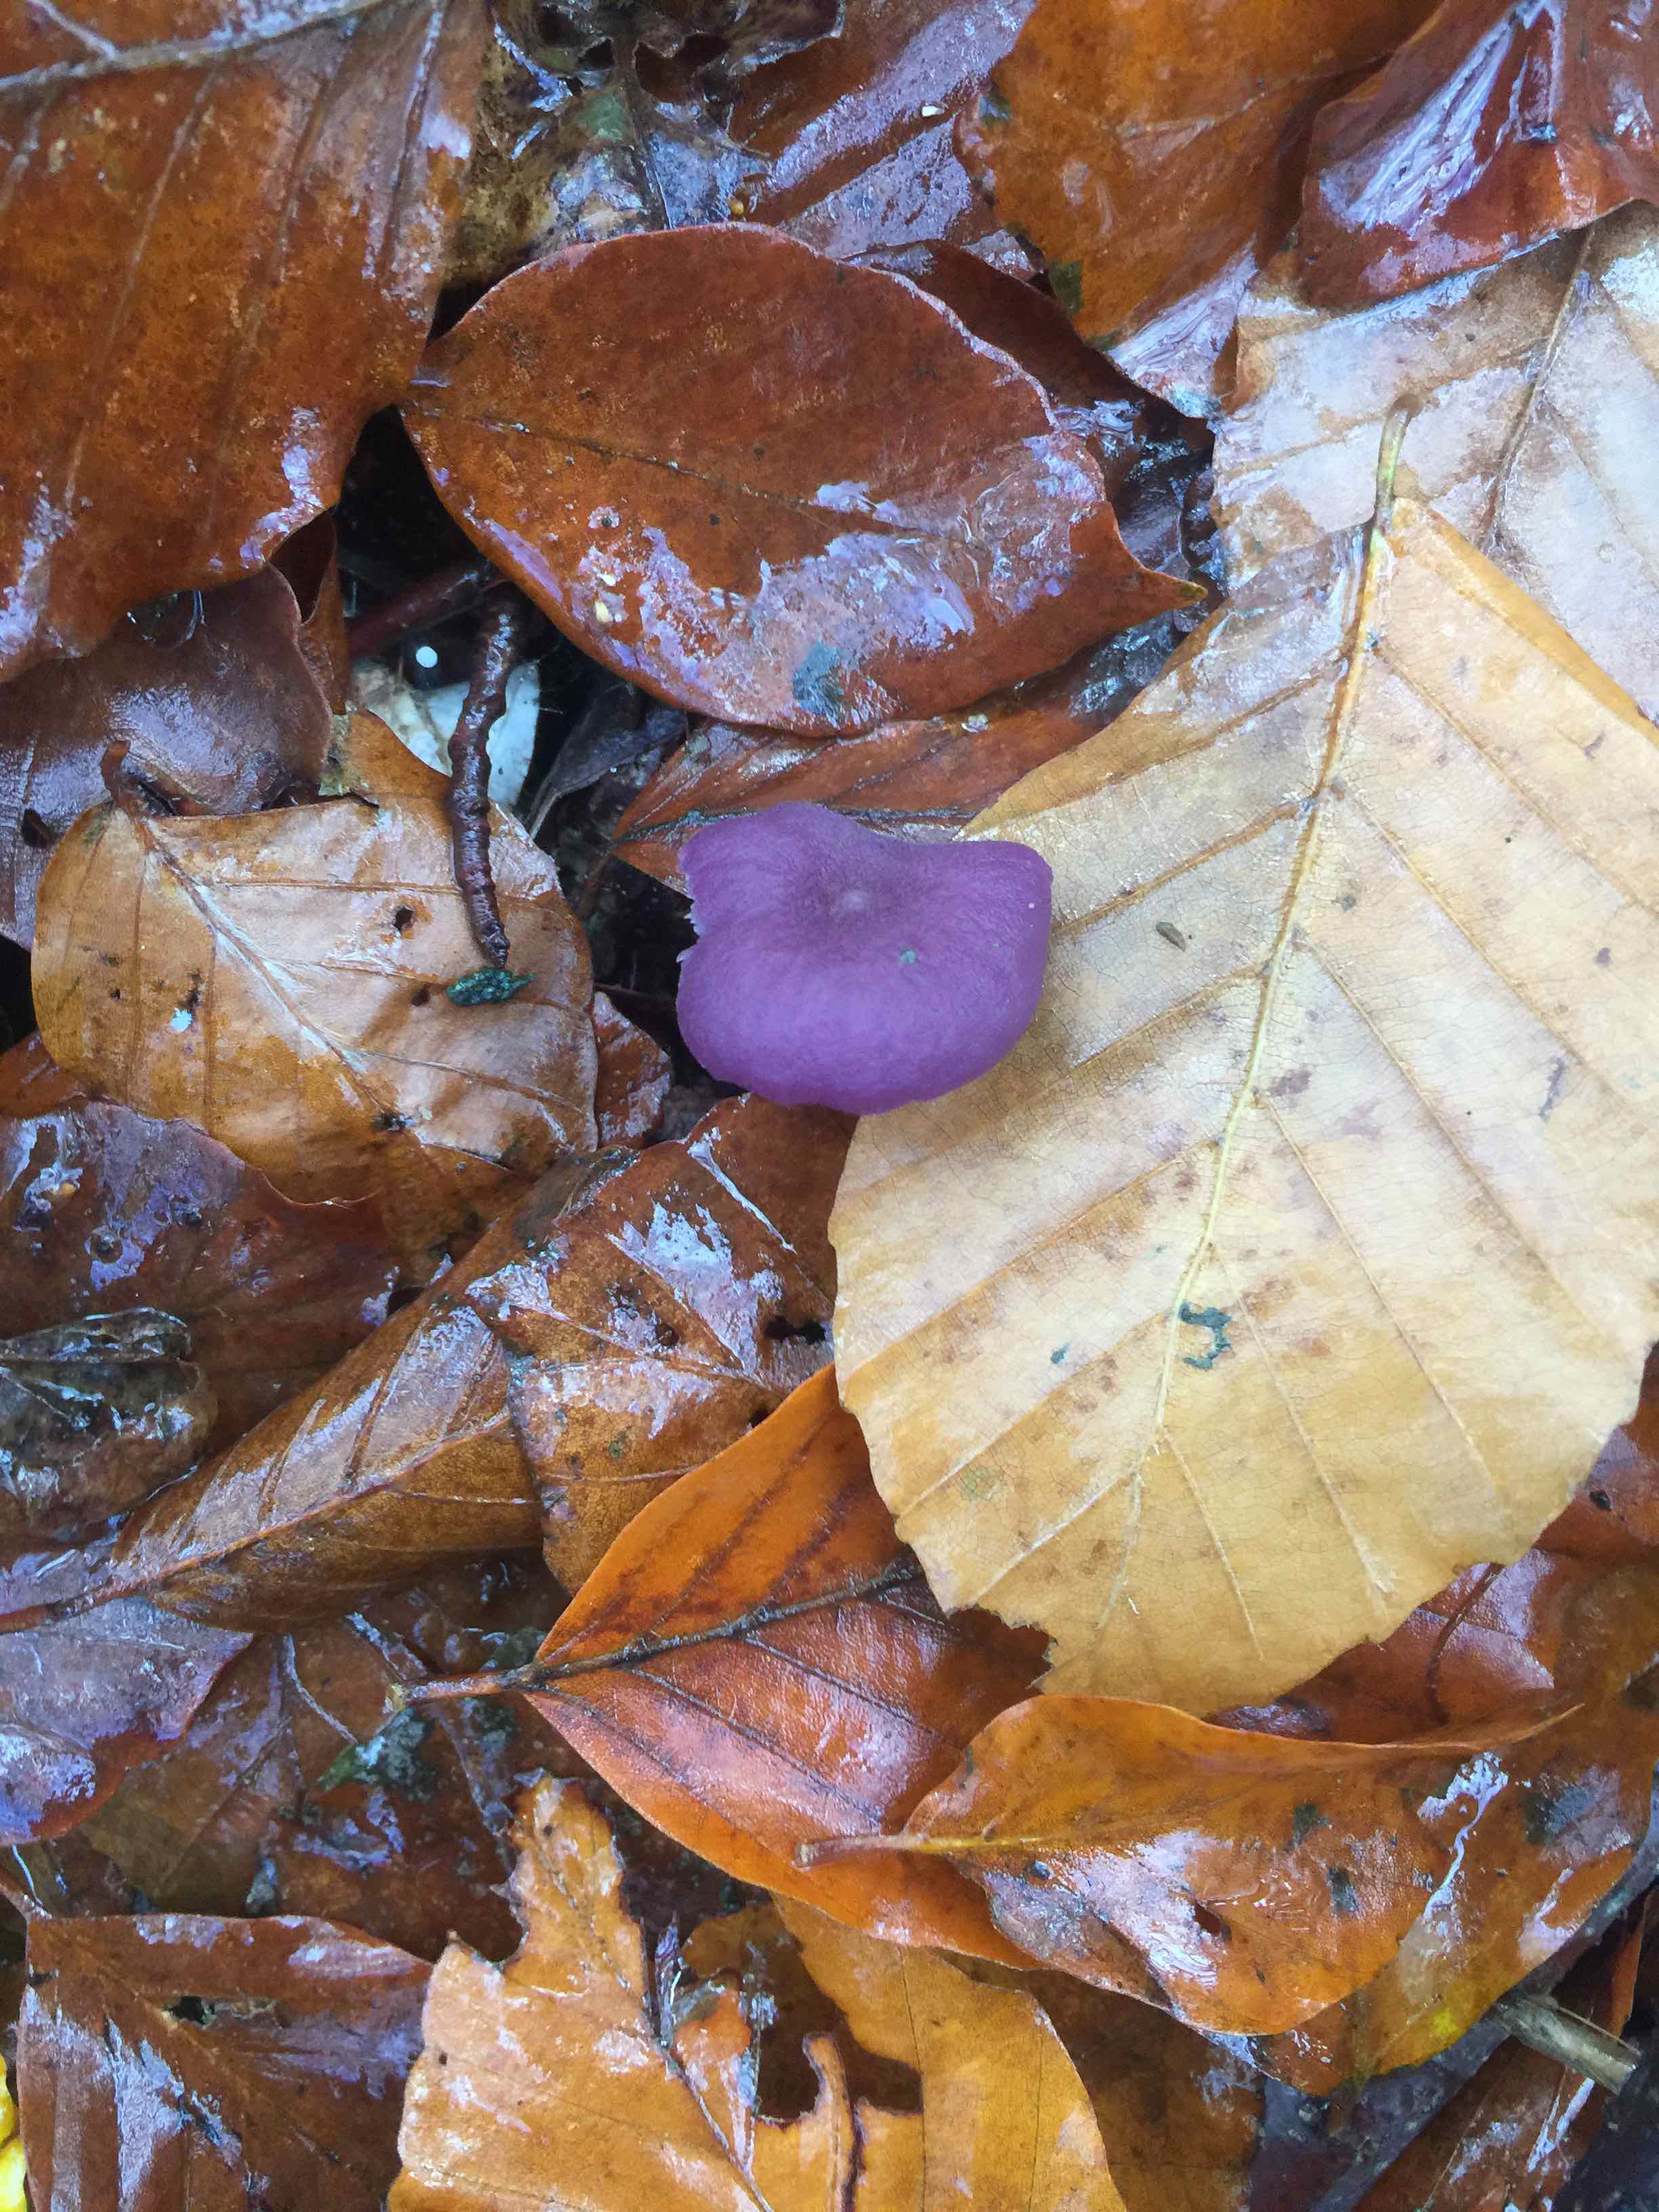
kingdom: Fungi
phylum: Basidiomycota
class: Agaricomycetes
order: Agaricales
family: Hydnangiaceae
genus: Laccaria
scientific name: Laccaria amethystina
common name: violet ametysthat
